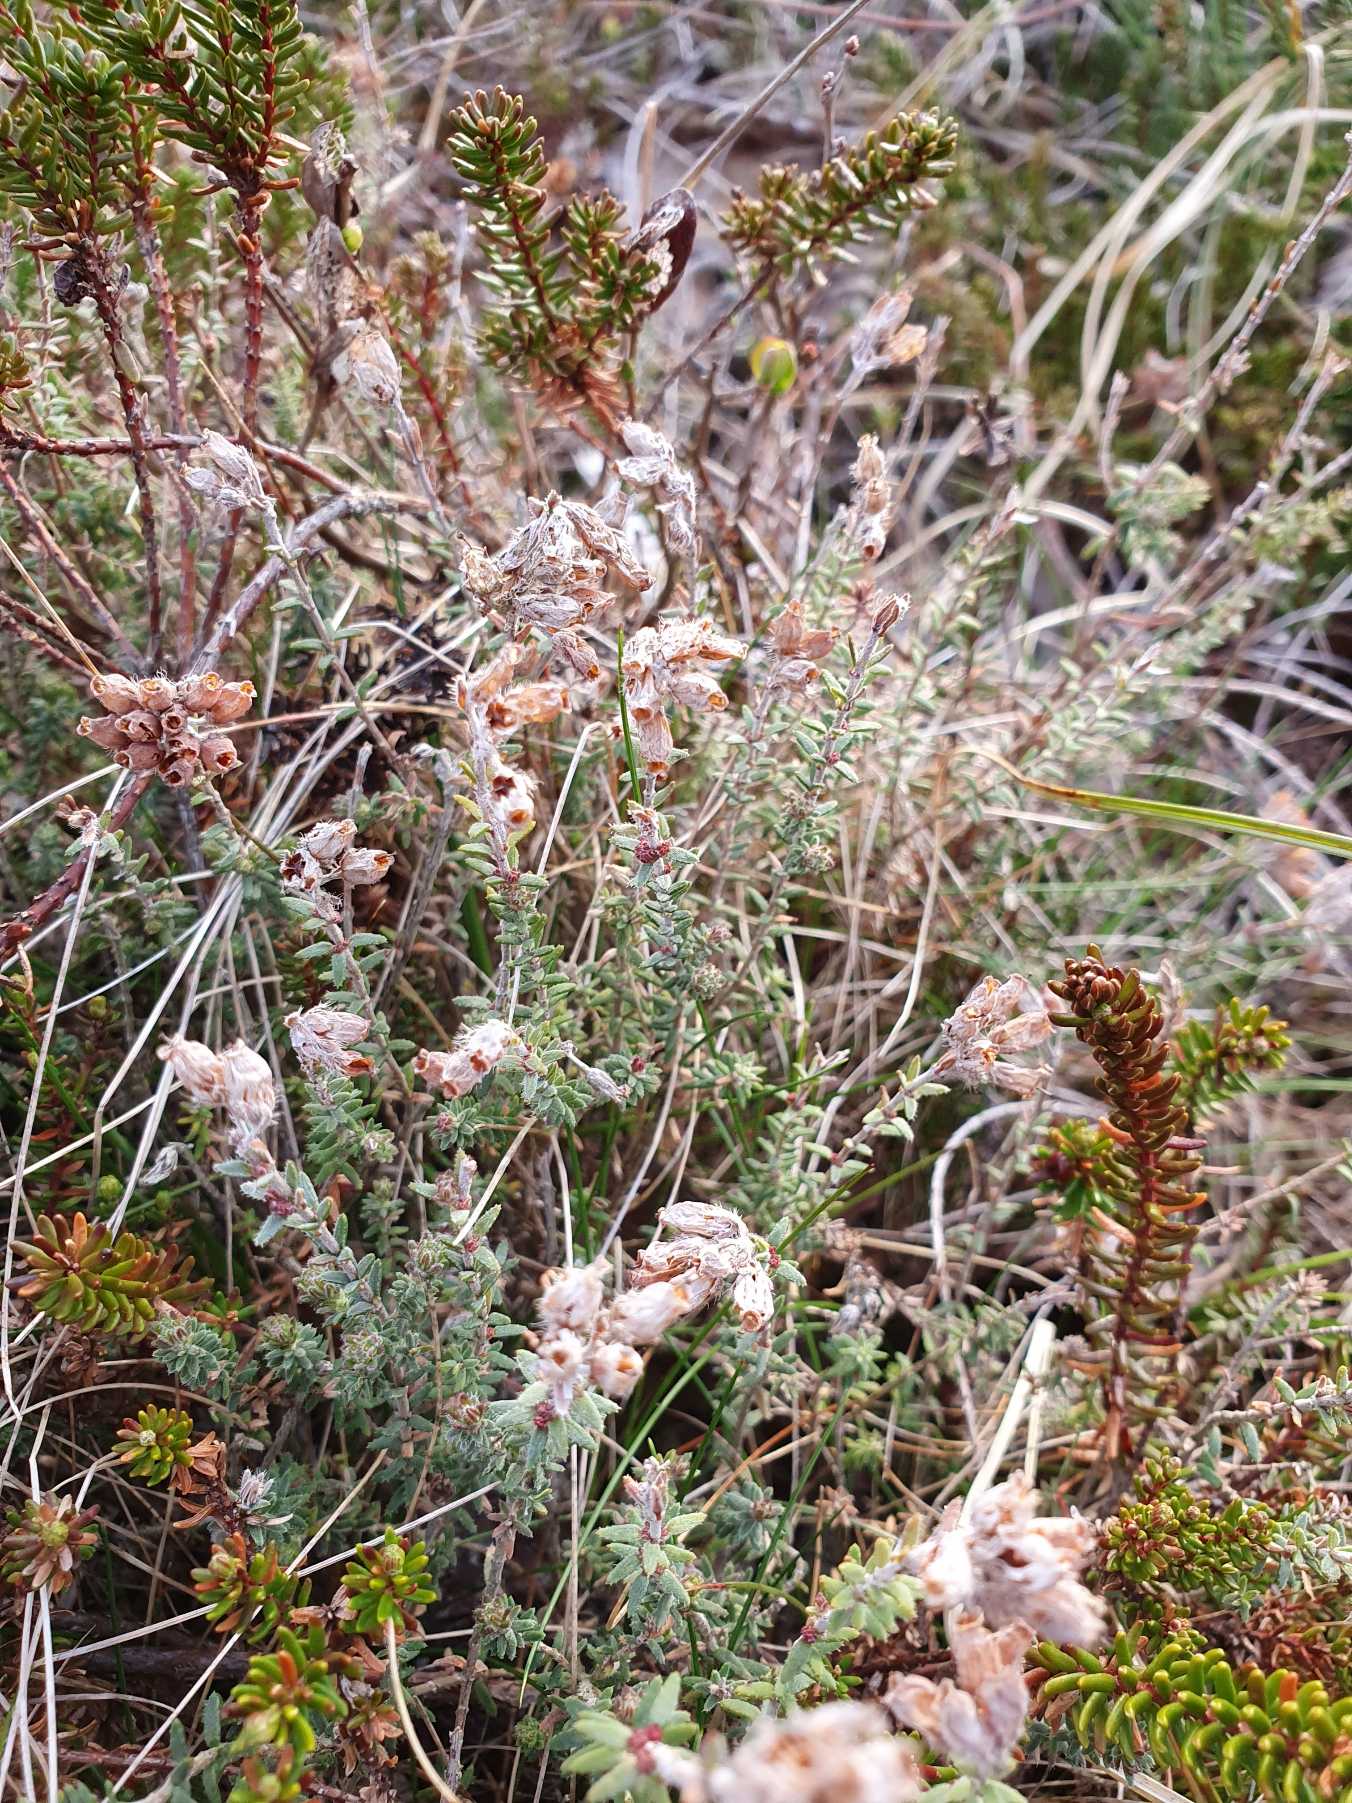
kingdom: Plantae
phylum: Tracheophyta
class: Magnoliopsida
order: Ericales
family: Ericaceae
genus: Erica
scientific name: Erica tetralix
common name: Klokkelyng
